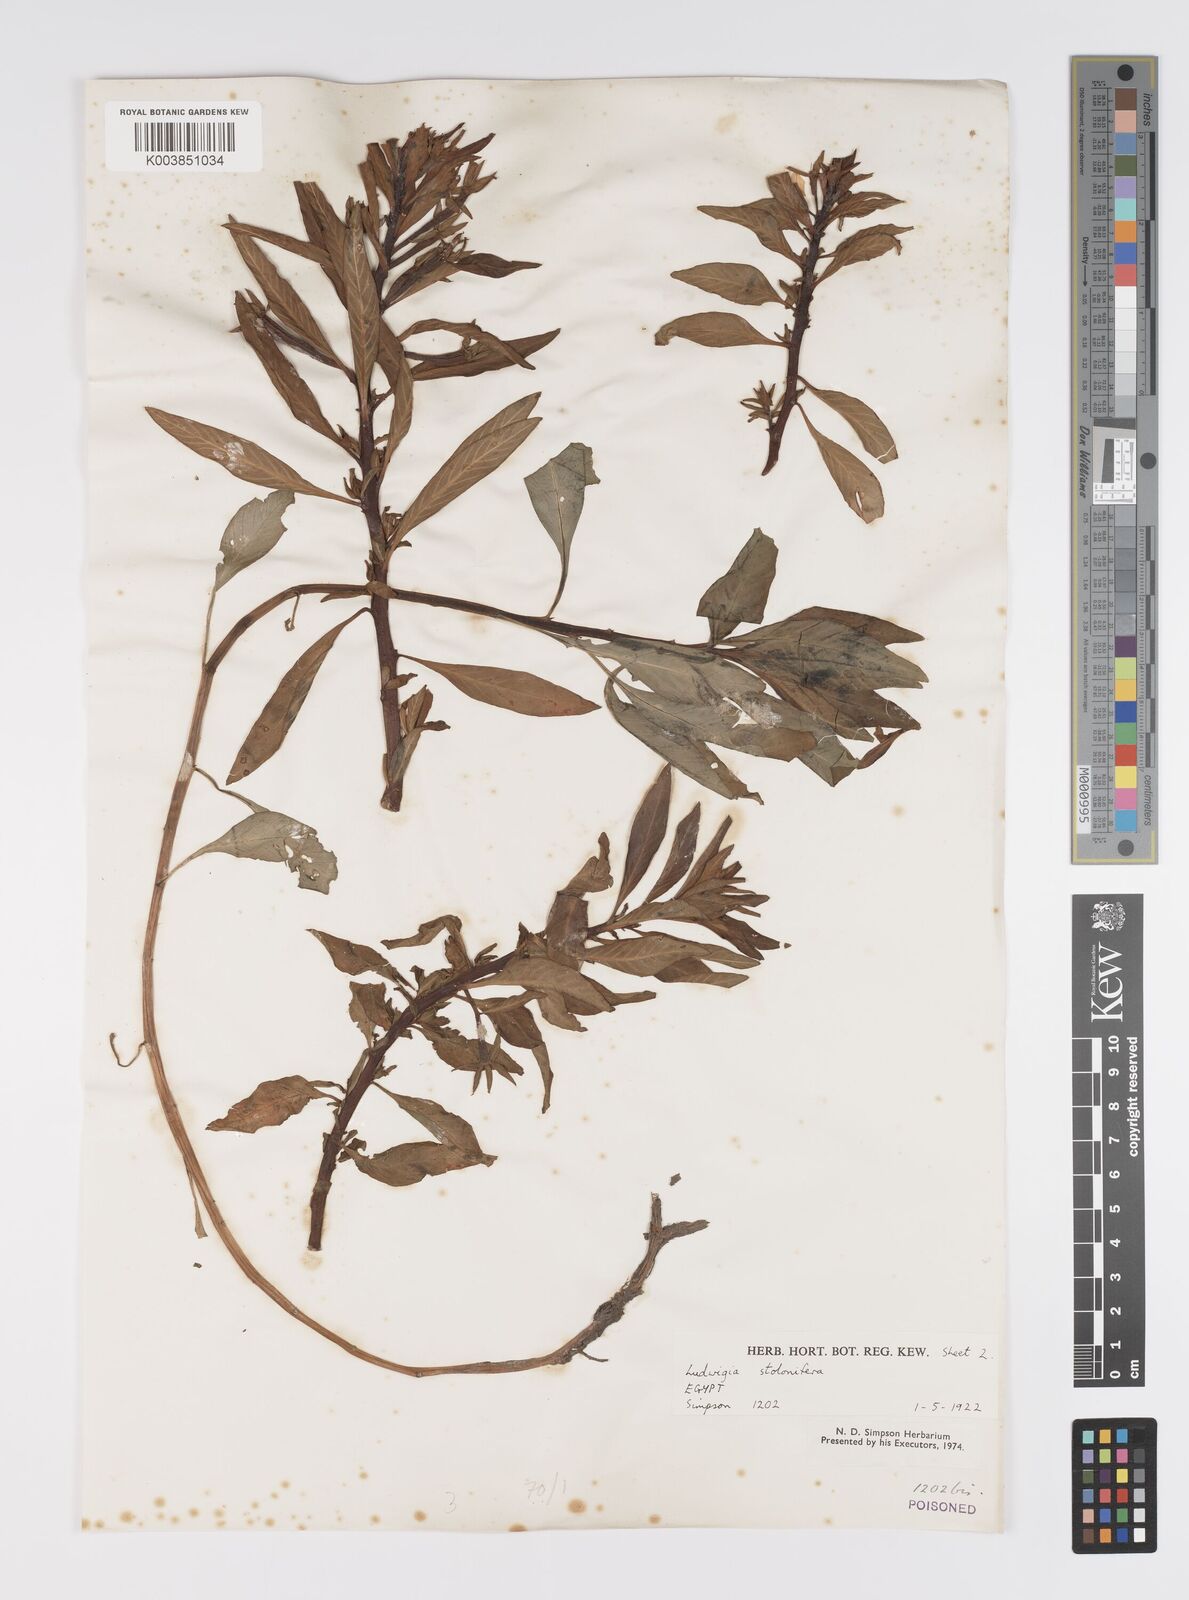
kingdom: Plantae
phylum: Tracheophyta
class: Magnoliopsida
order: Myrtales
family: Onagraceae
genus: Ludwigia
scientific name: Ludwigia adscendens
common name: Creeping water primrose
